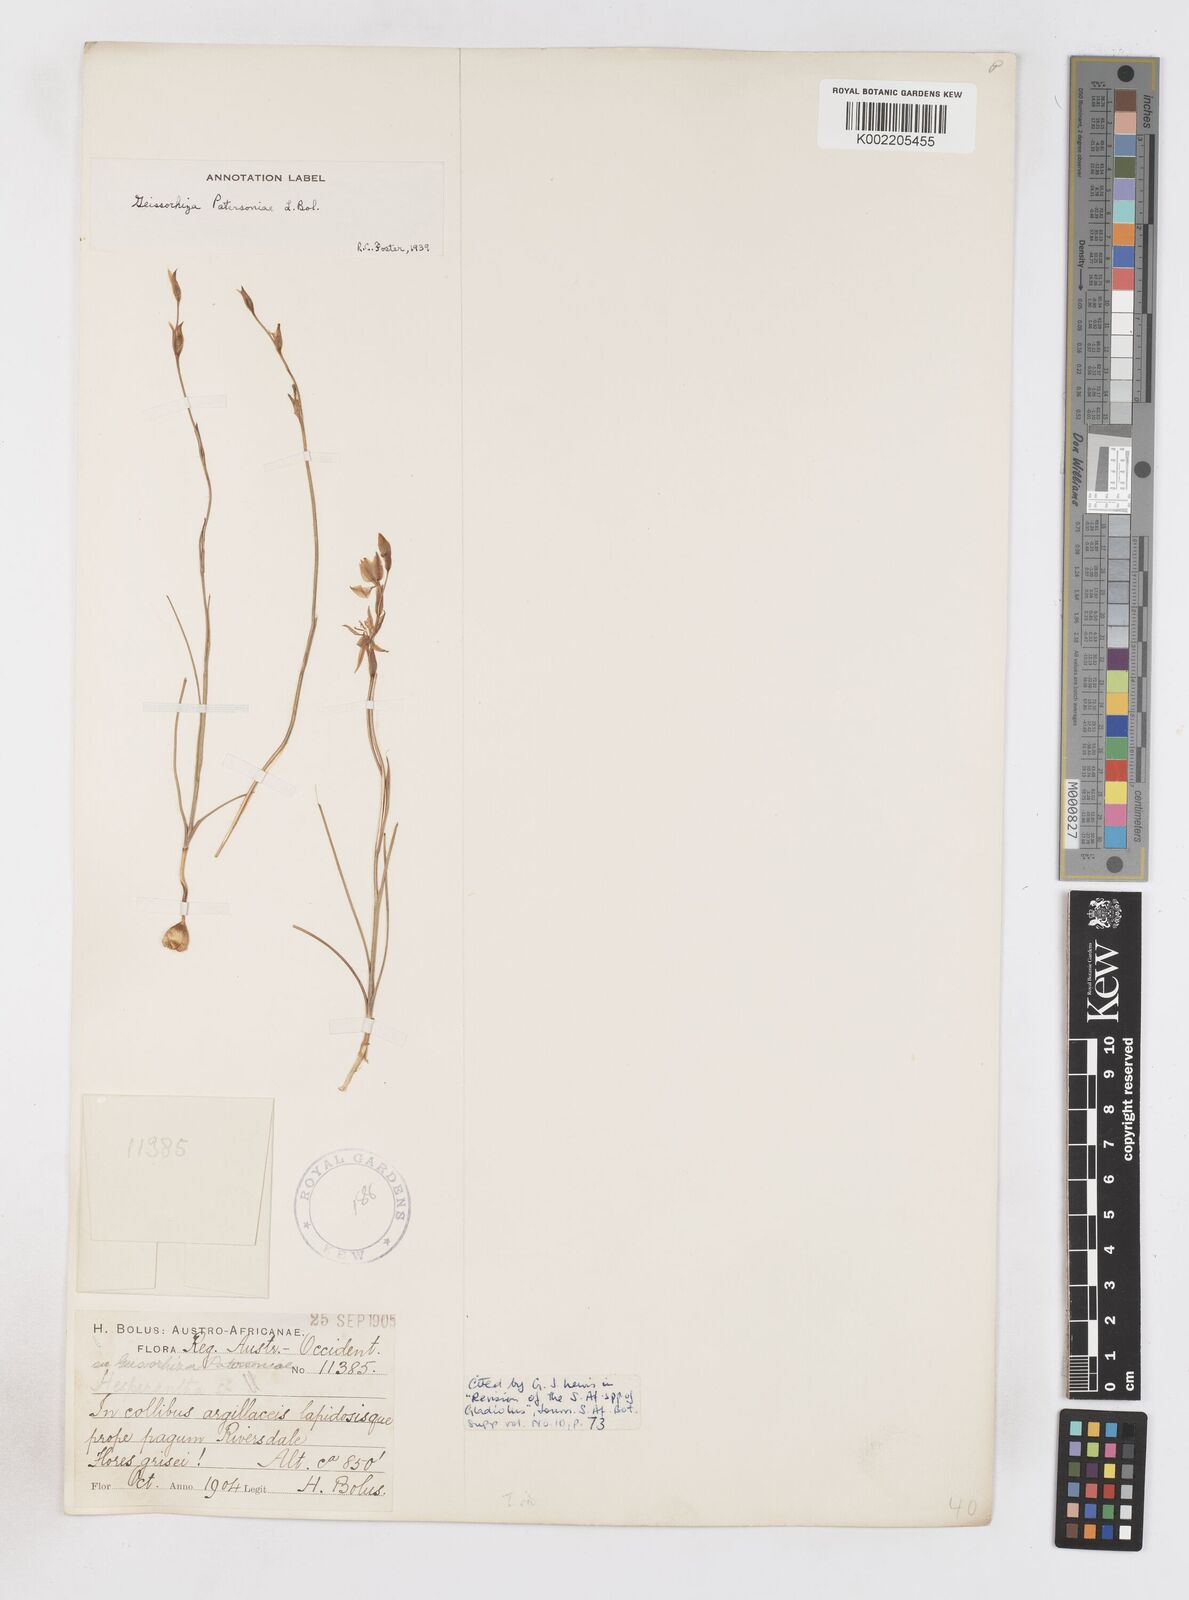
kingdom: Plantae
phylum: Tracheophyta
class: Liliopsida
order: Asparagales
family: Iridaceae
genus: Gladiolus
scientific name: Gladiolus stellatus
